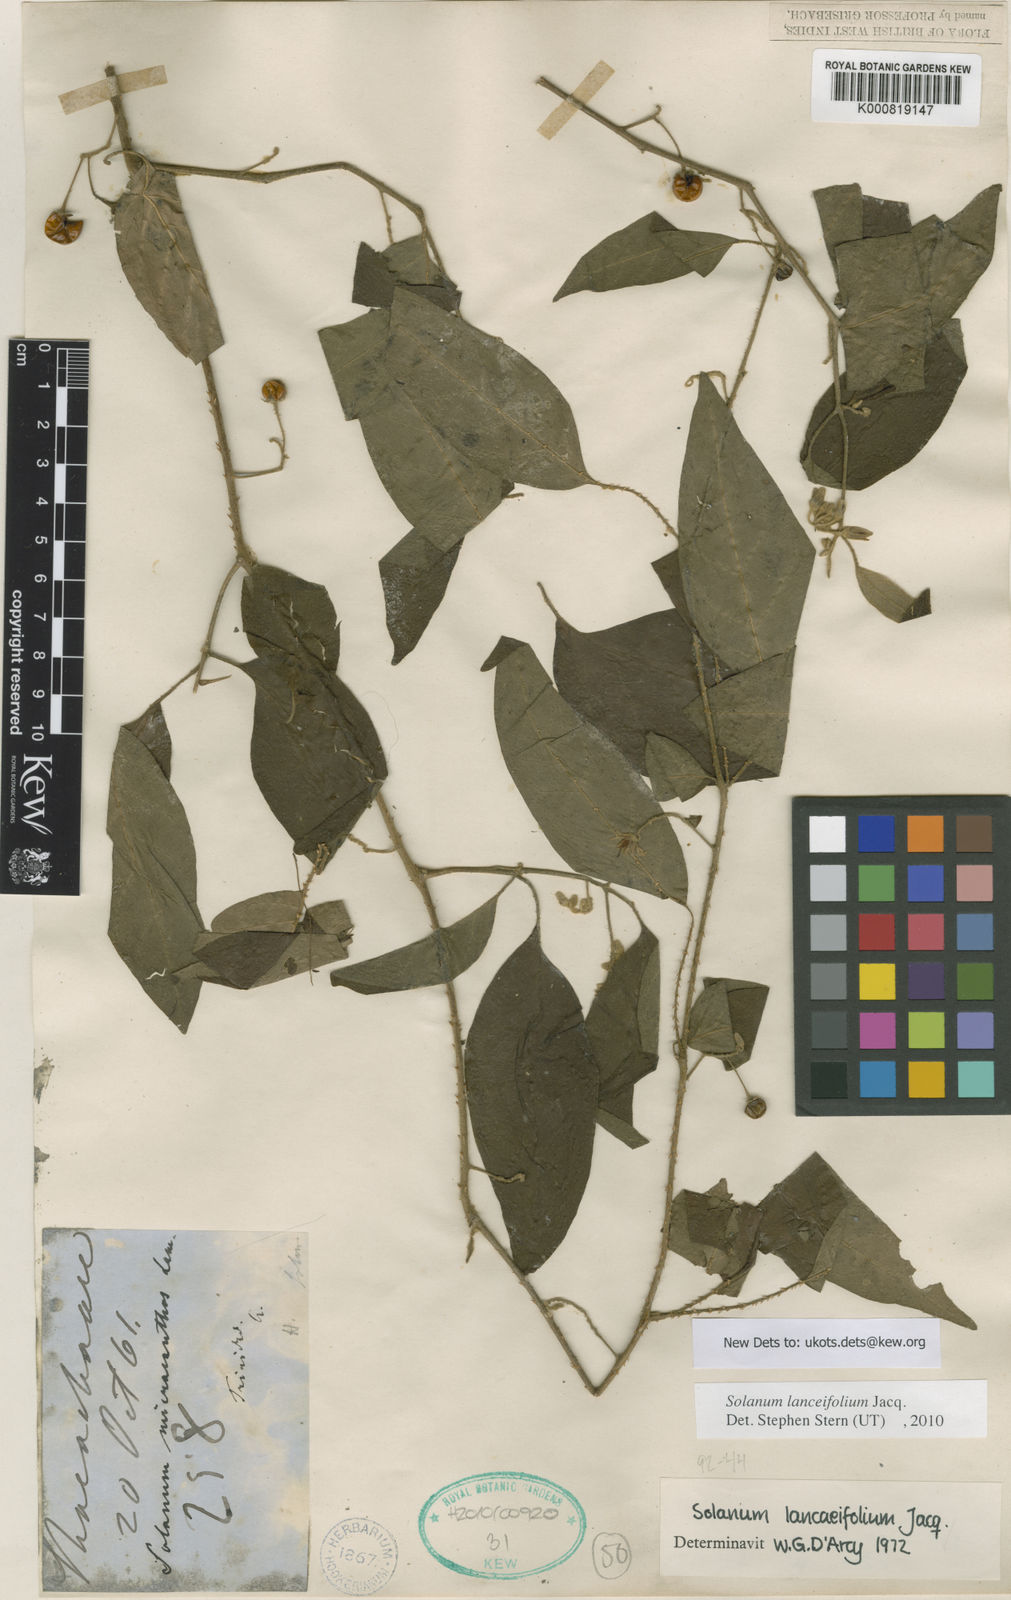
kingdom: Plantae
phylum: Tracheophyta
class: Magnoliopsida
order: Solanales
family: Solanaceae
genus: Solanum
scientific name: Solanum lanceifolium
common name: Lanceleaf nightshade
